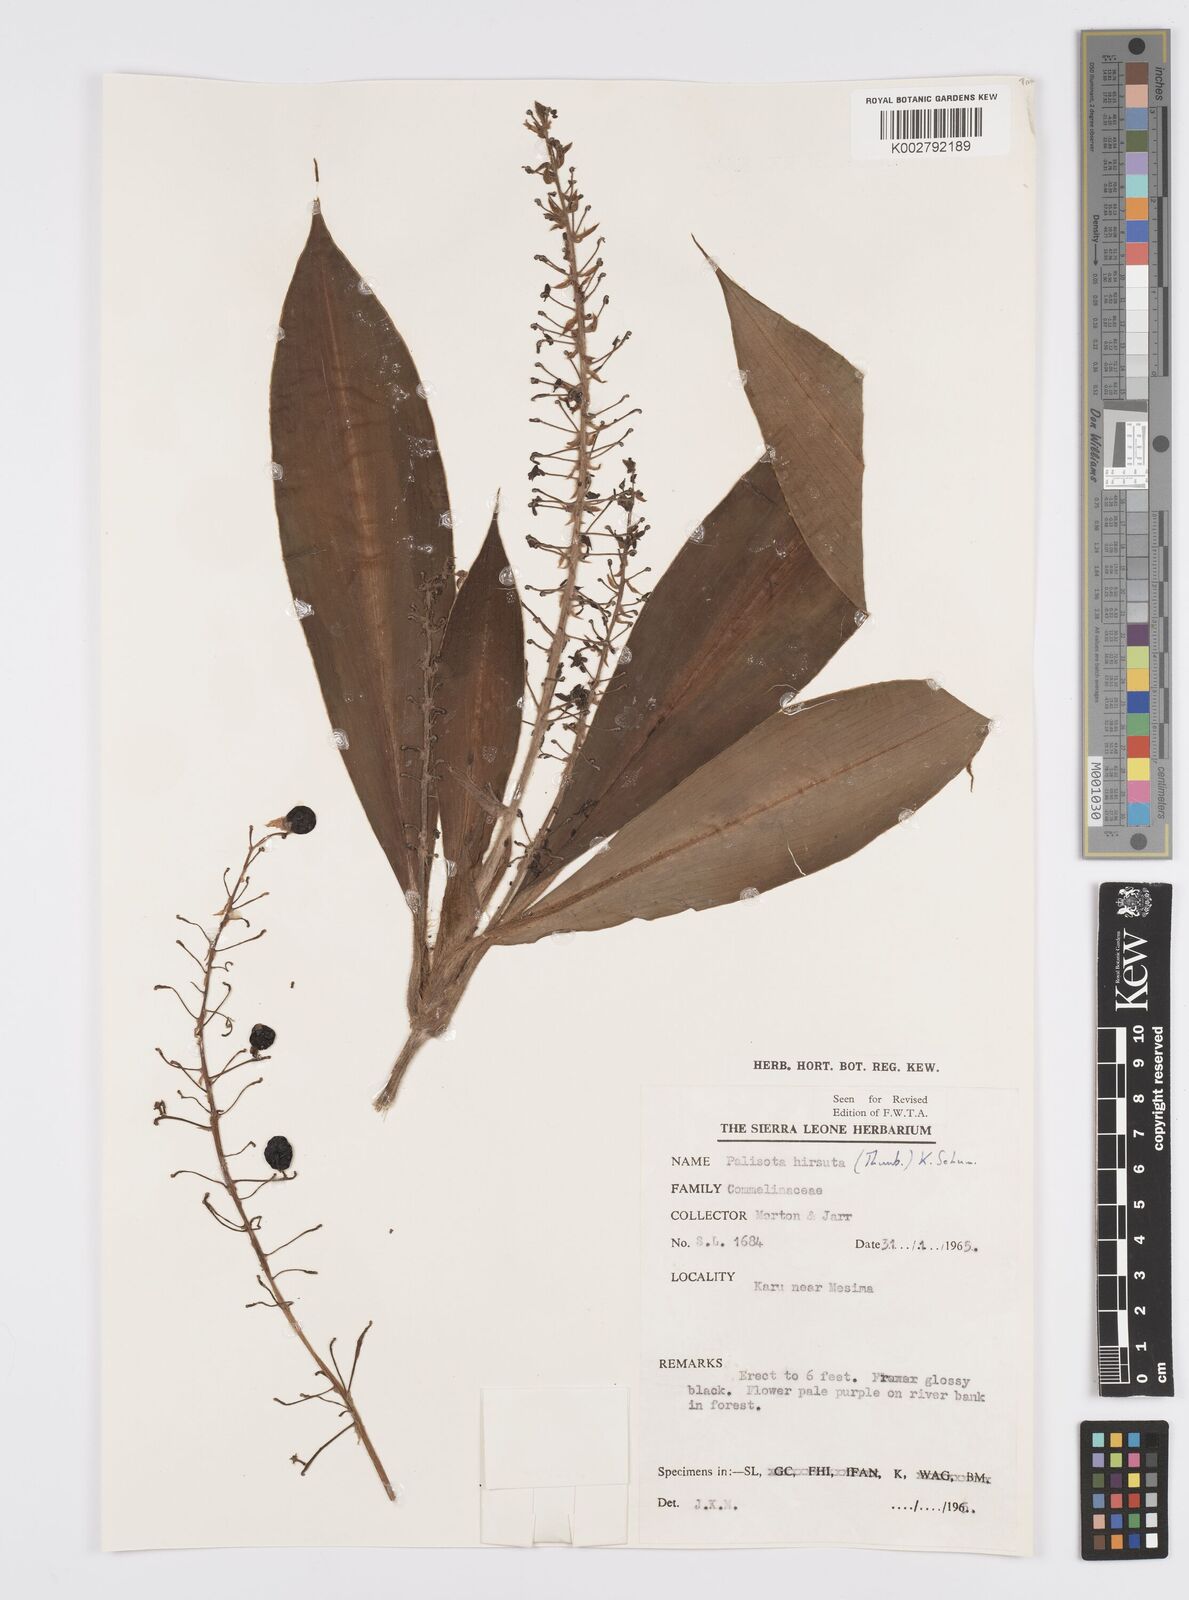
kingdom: Plantae
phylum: Tracheophyta
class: Liliopsida
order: Commelinales
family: Commelinaceae
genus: Palisota
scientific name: Palisota hirsuta
